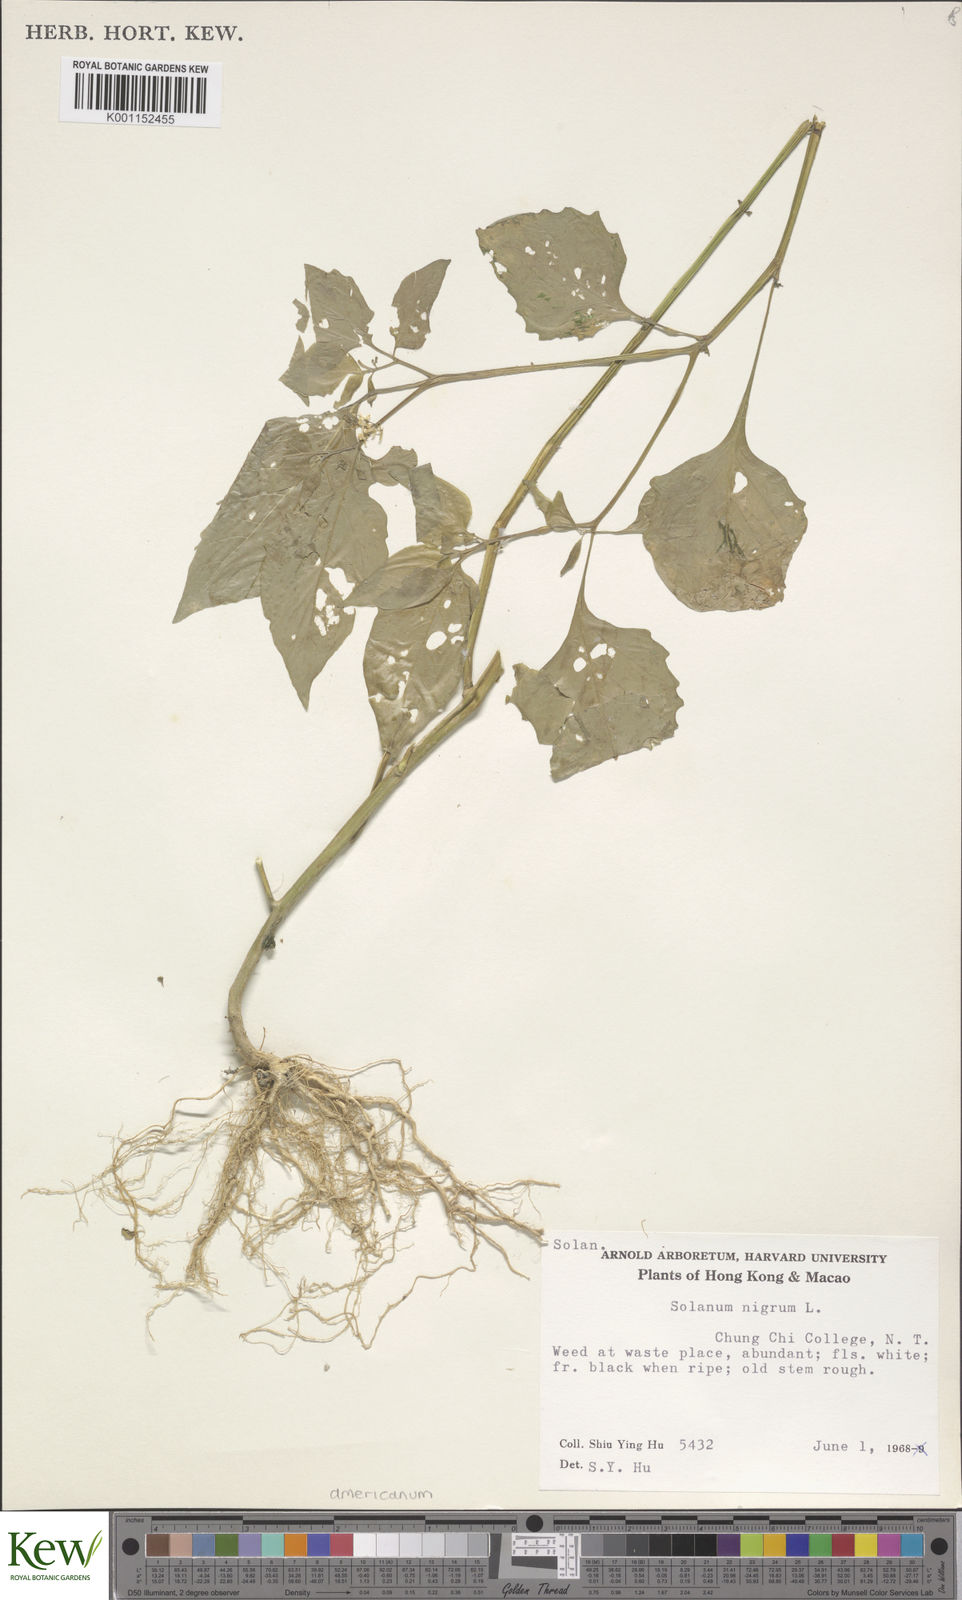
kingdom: Plantae
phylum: Tracheophyta
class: Magnoliopsida
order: Solanales
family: Solanaceae
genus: Solanum
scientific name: Solanum americanum
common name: American black nightshade
